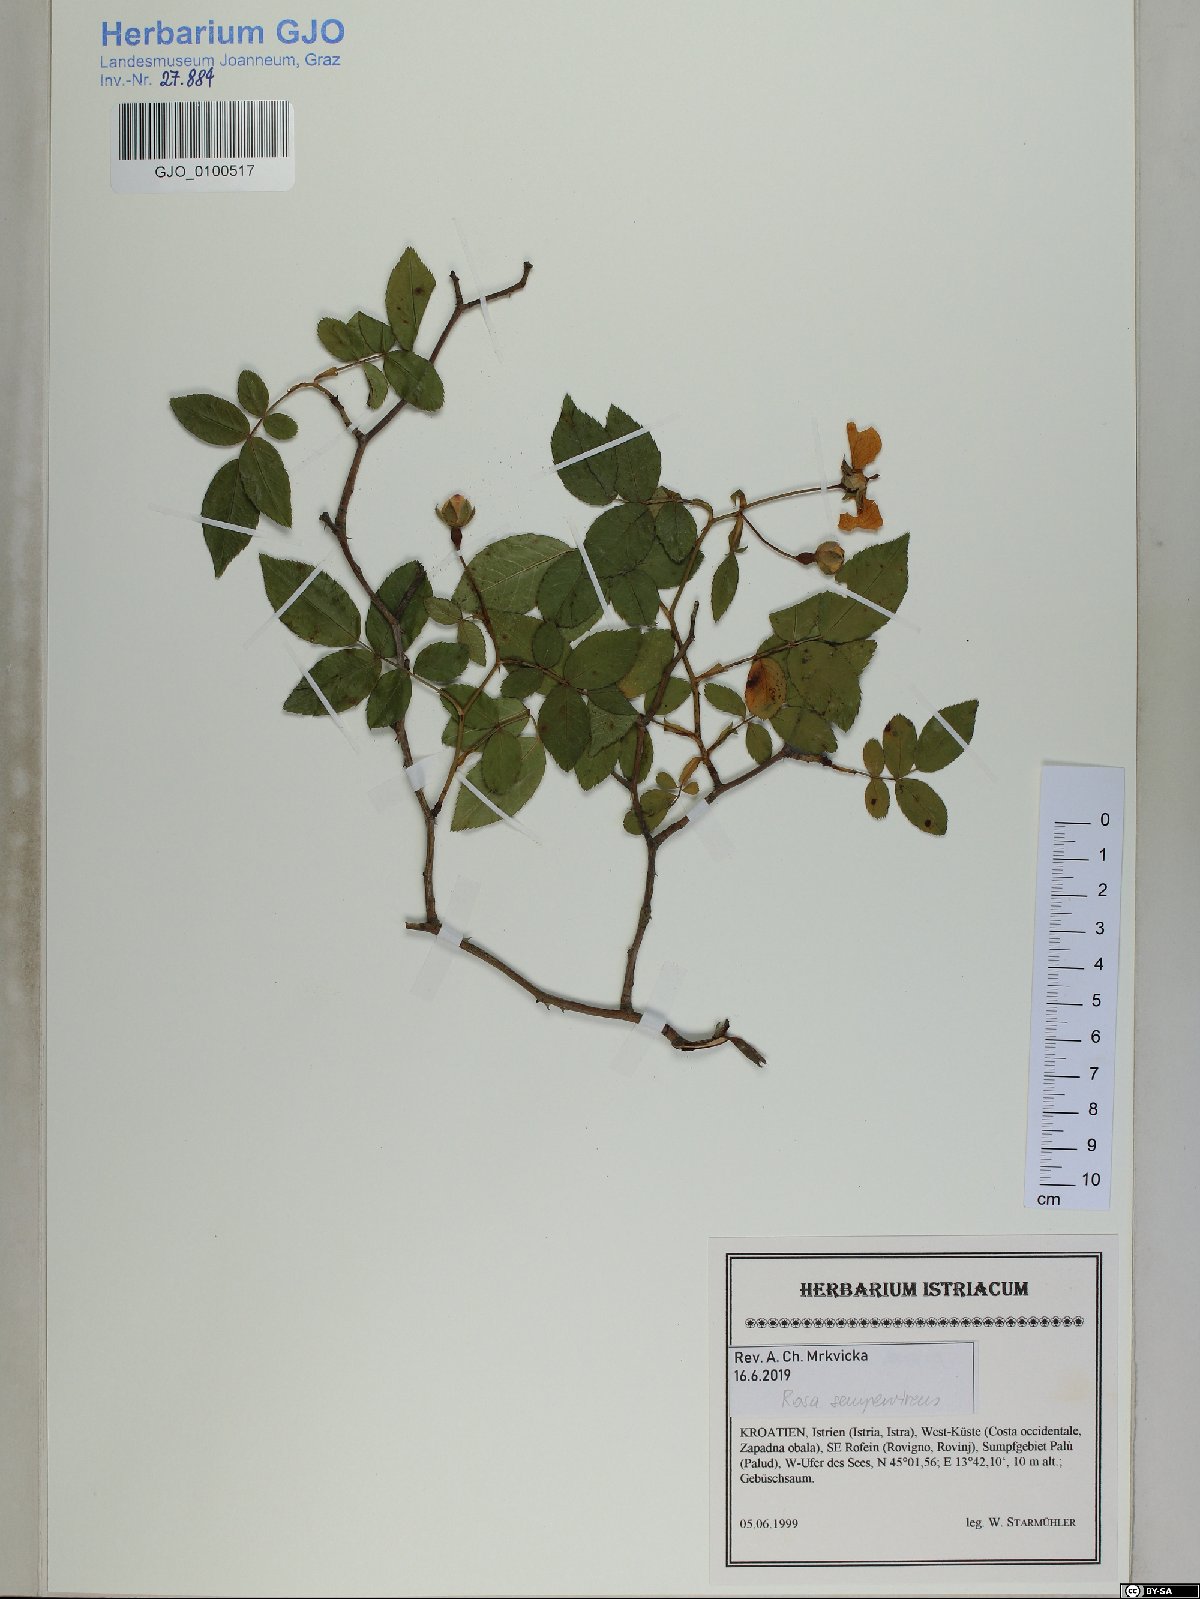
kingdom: Plantae
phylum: Tracheophyta
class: Magnoliopsida
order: Rosales
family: Rosaceae
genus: Rosa
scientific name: Rosa sempervirens
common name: Evergreen rose
